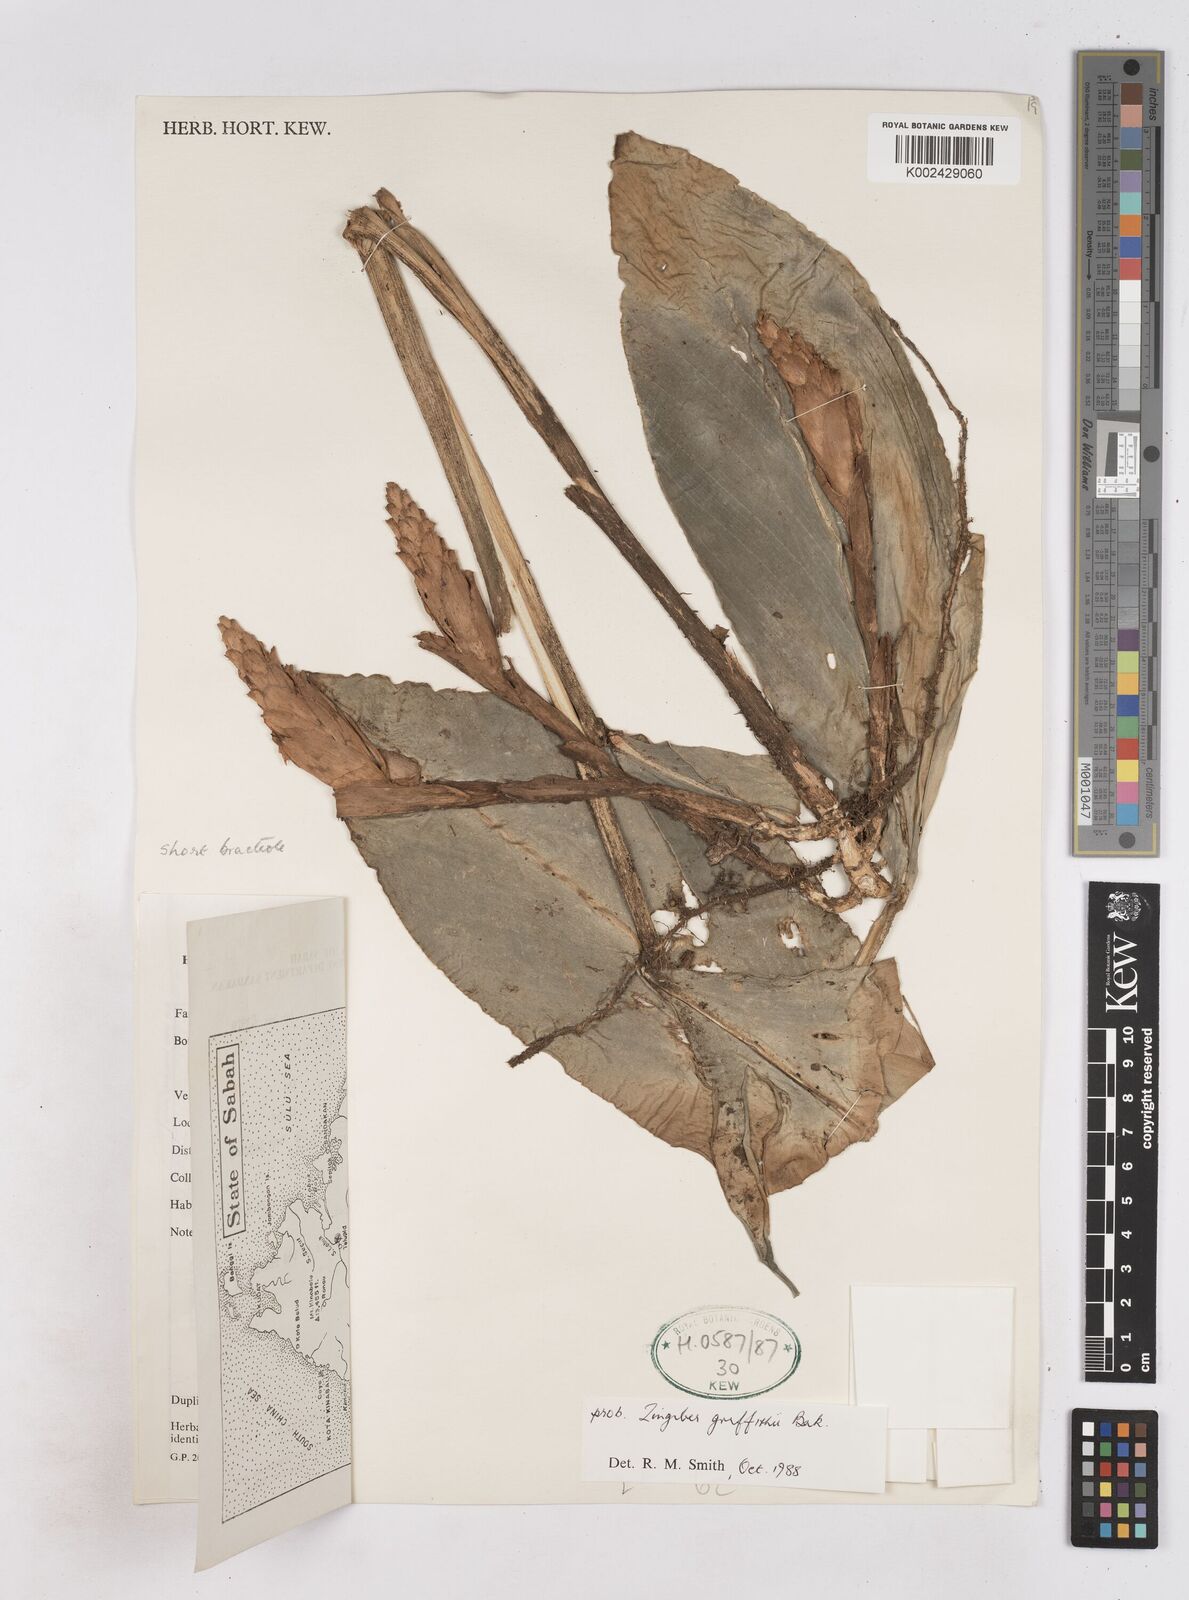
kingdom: Plantae
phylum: Tracheophyta
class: Liliopsida
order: Zingiberales
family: Zingiberaceae
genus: Zingiber
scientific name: Zingiber griffithii
